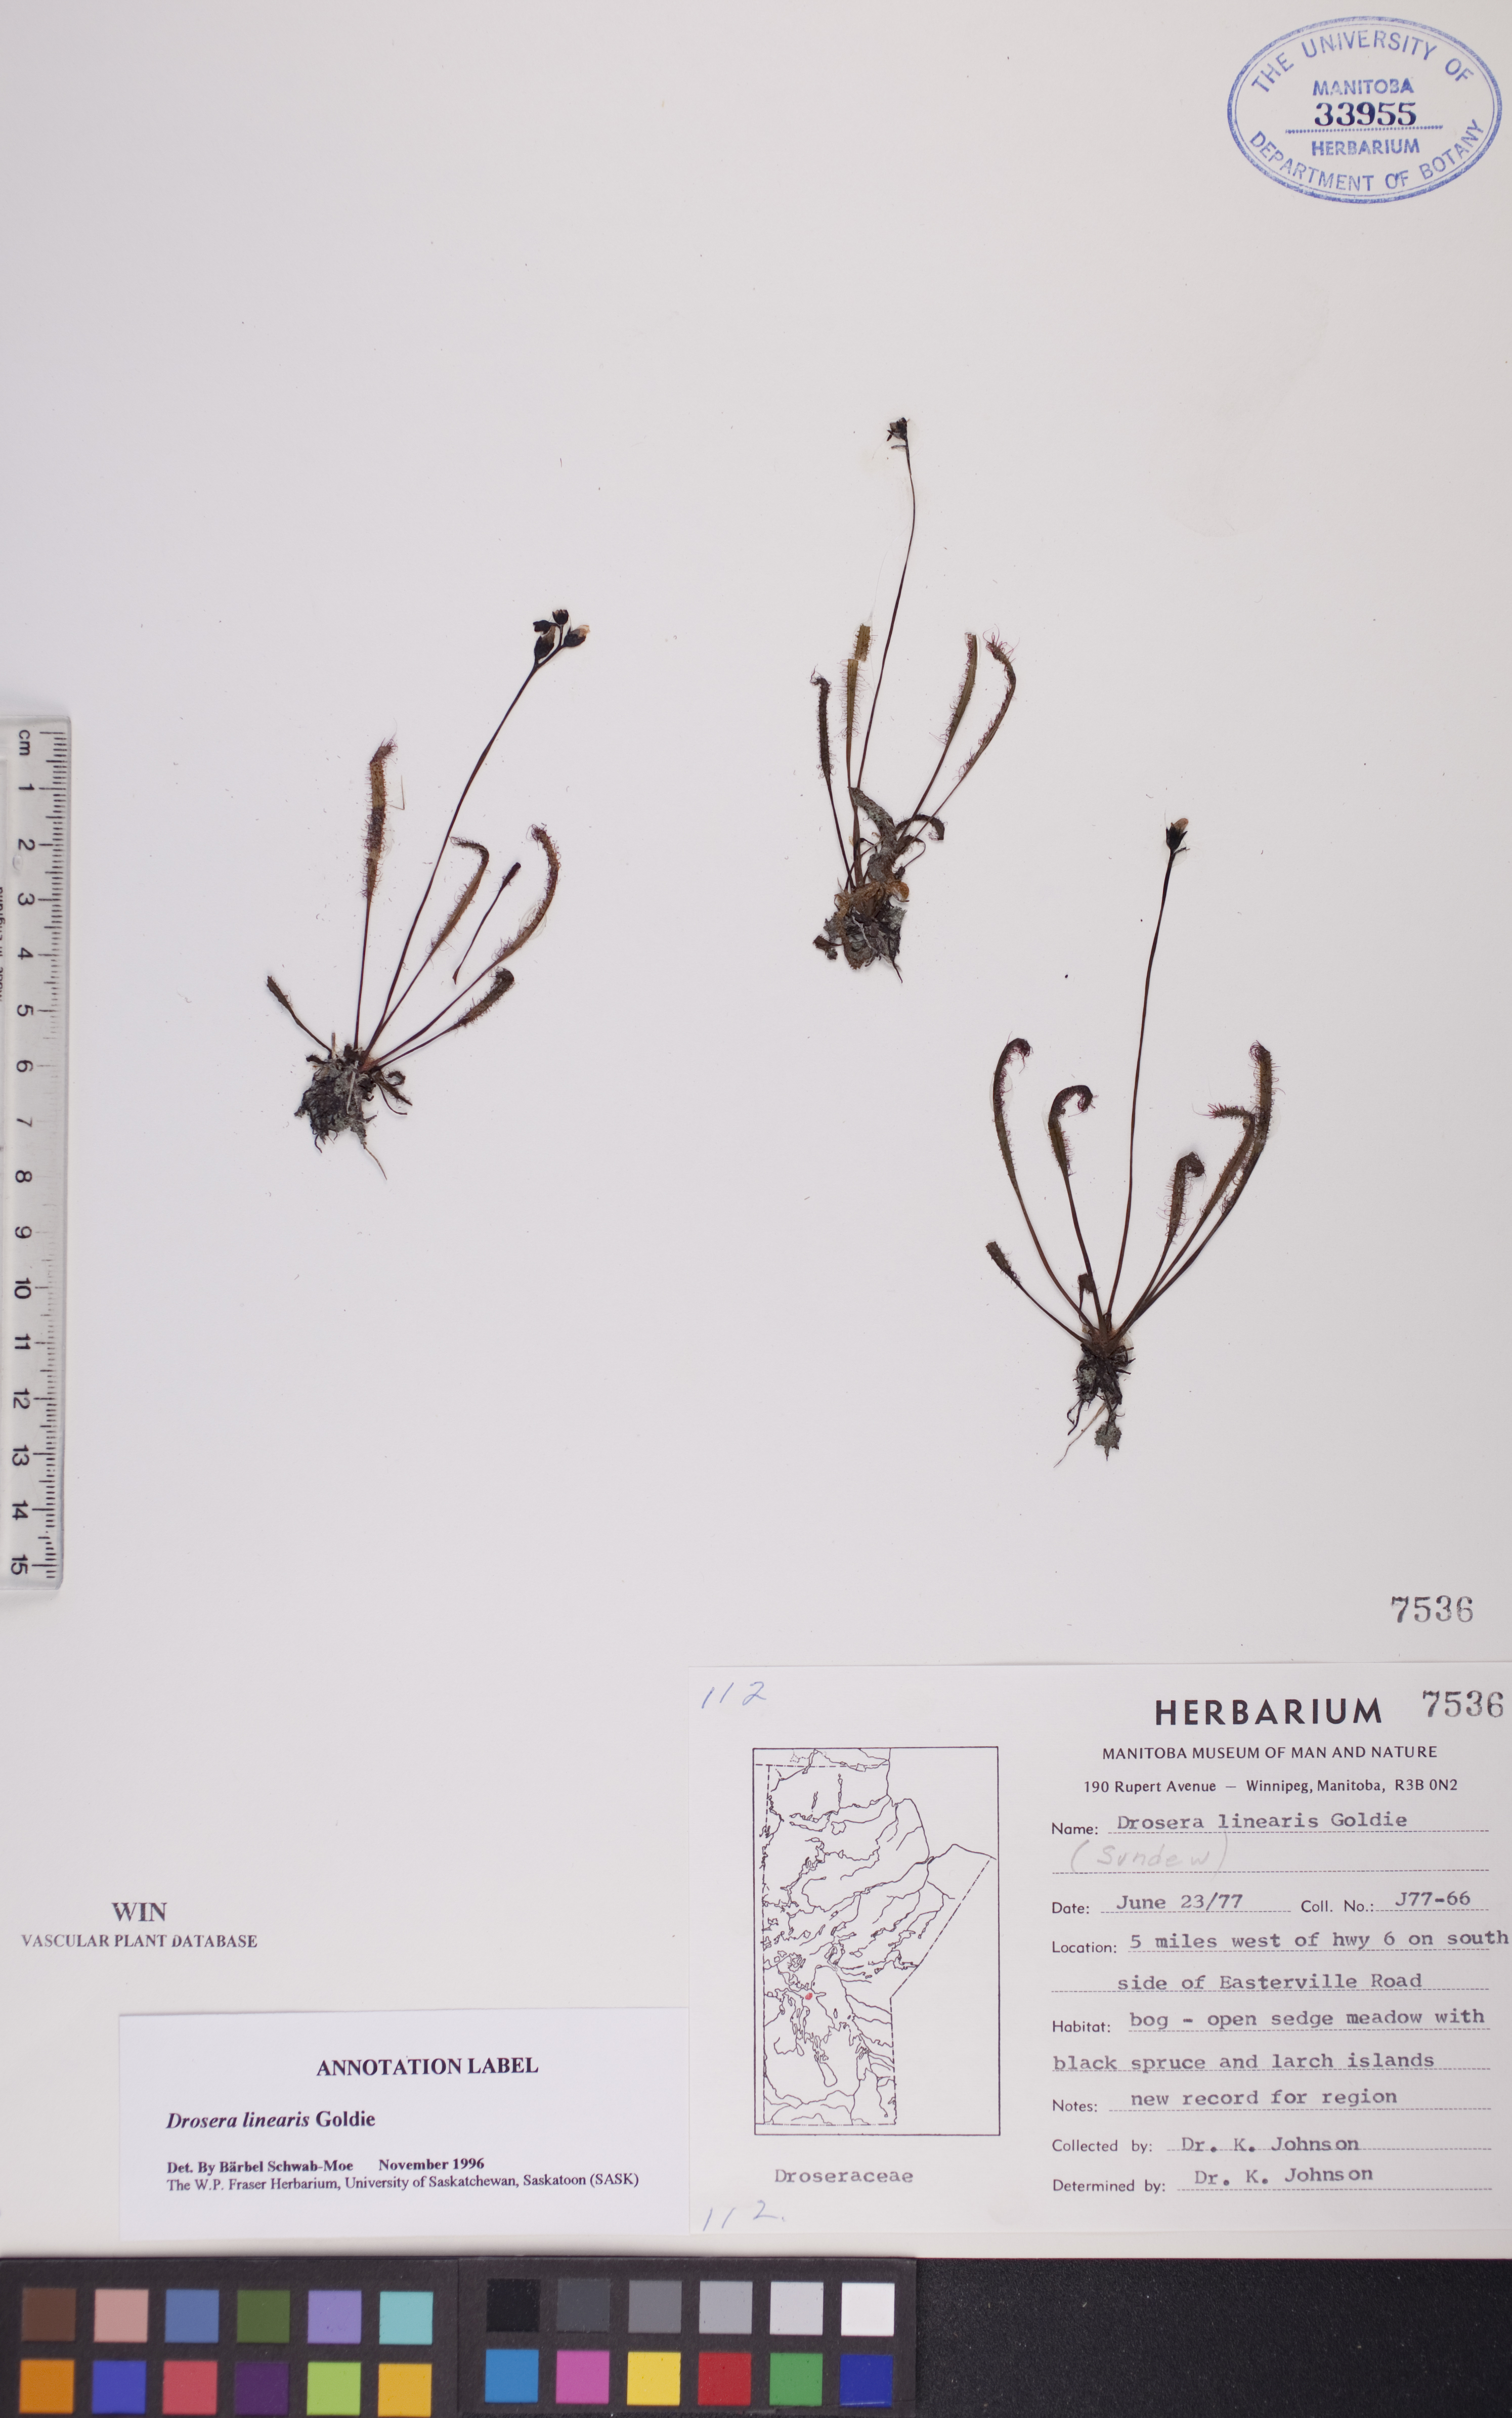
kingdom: Plantae
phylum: Tracheophyta
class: Magnoliopsida
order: Caryophyllales
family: Droseraceae
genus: Drosera
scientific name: Drosera linearis
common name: Linear-leaved sundew
